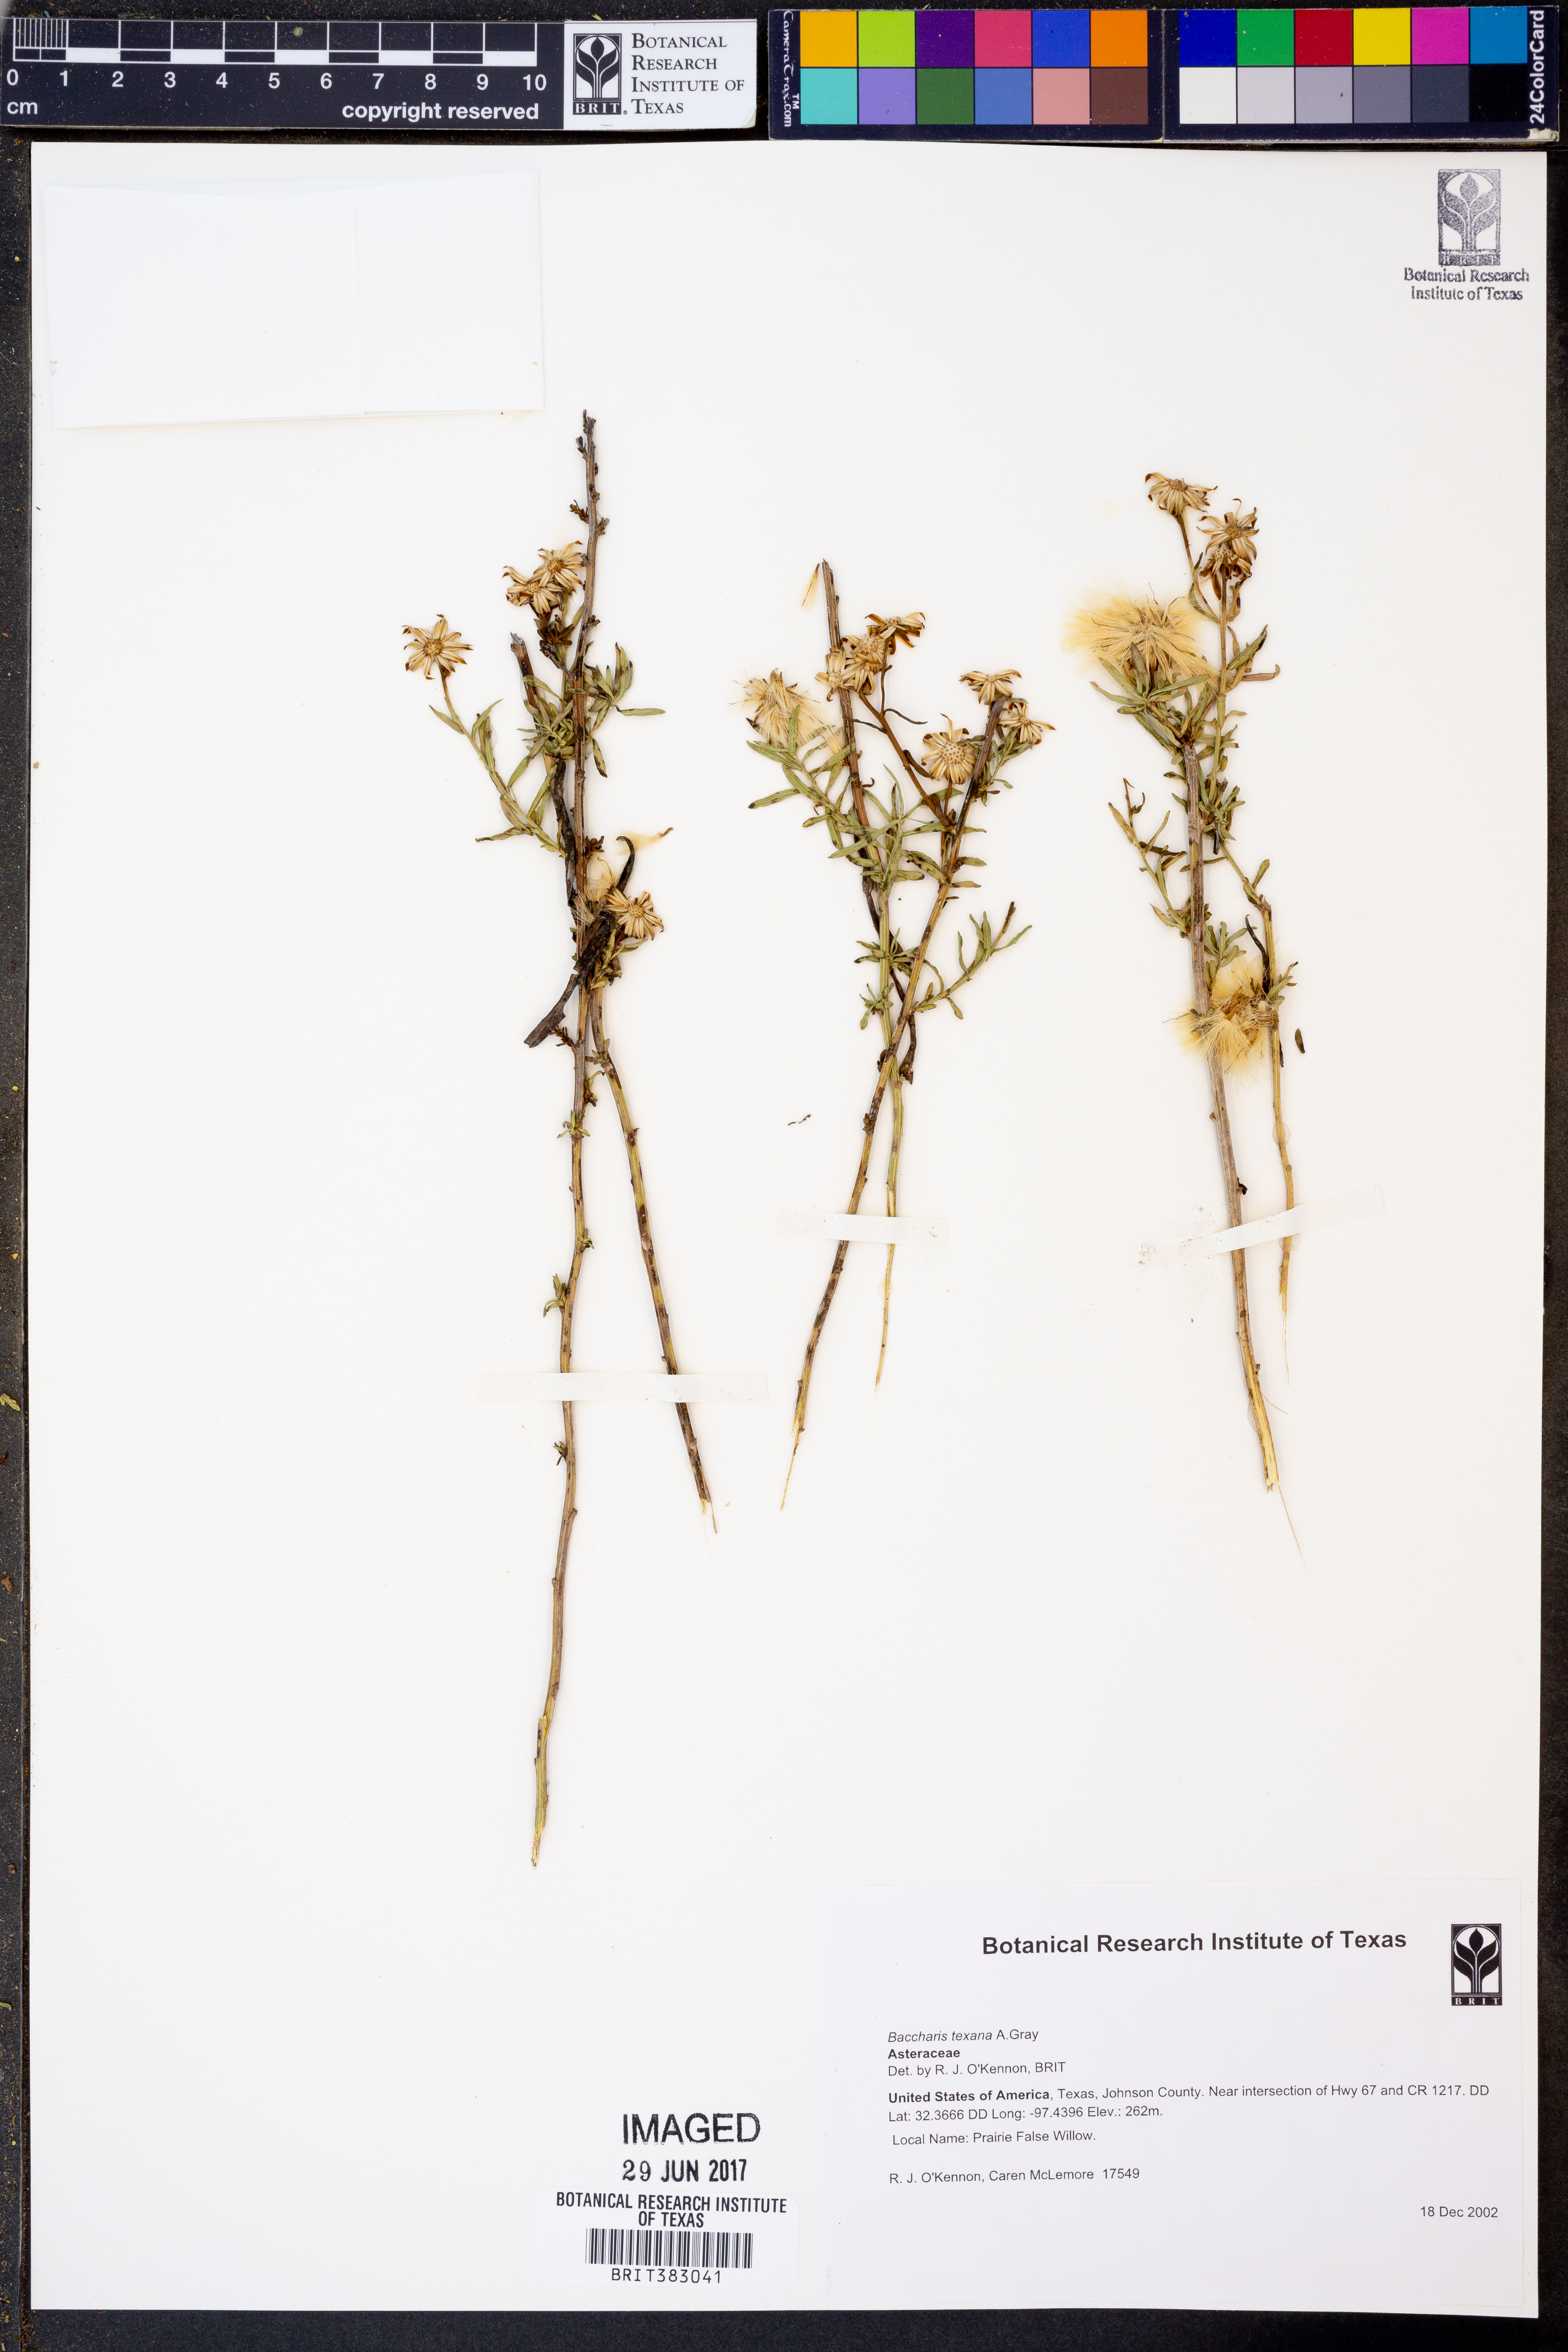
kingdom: Plantae
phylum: Tracheophyta
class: Magnoliopsida
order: Asterales
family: Asteraceae
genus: Baccharis
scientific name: Baccharis texana
